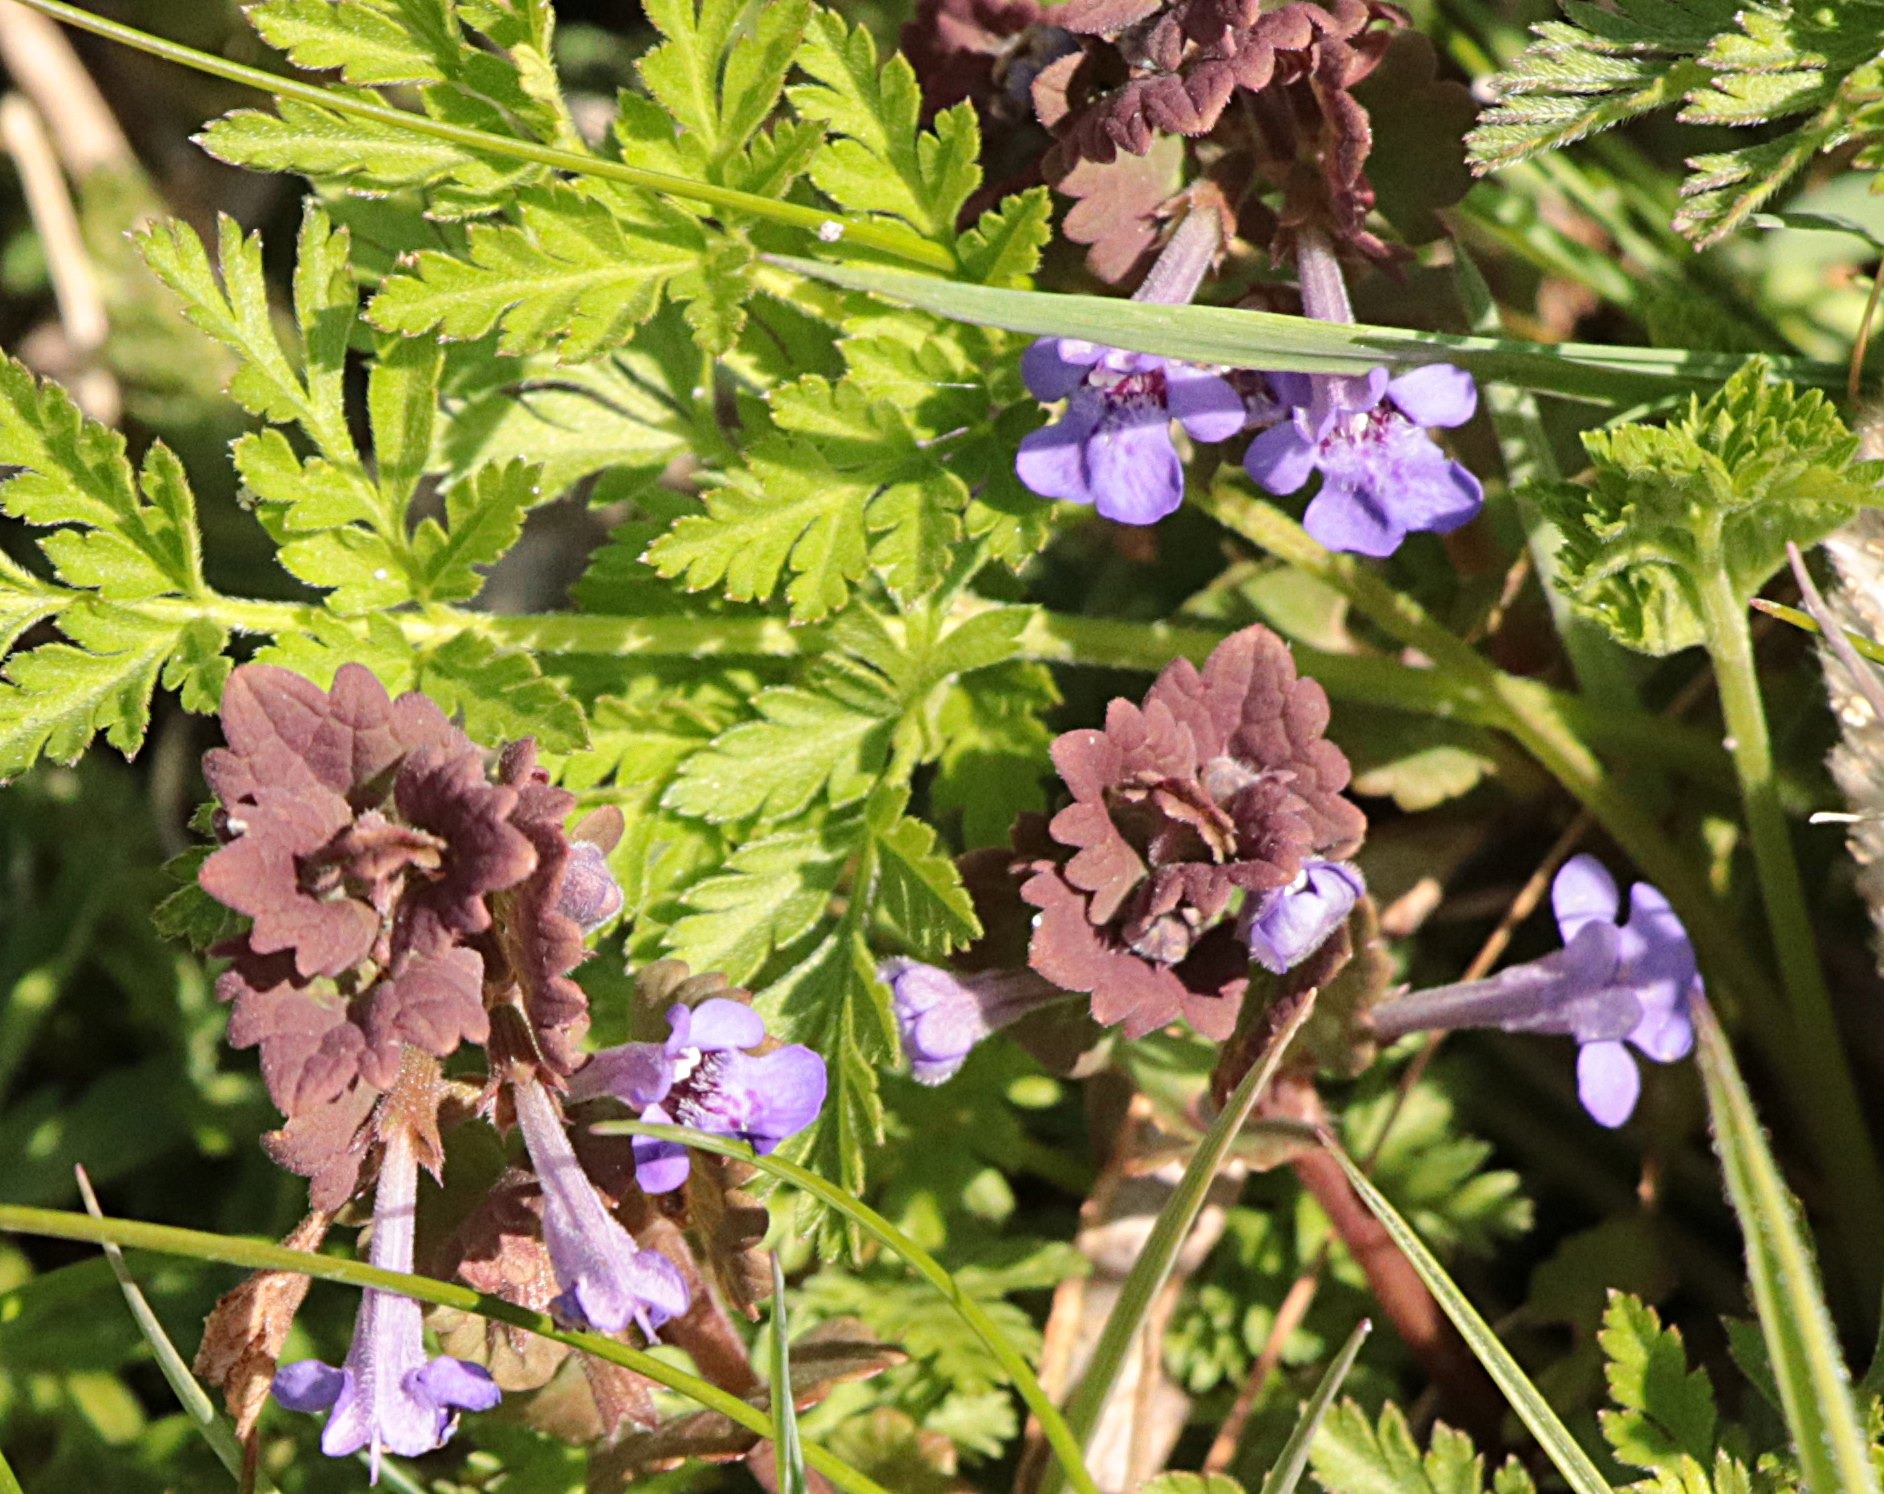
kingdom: Plantae
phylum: Tracheophyta
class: Magnoliopsida
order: Lamiales
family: Lamiaceae
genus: Glechoma
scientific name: Glechoma hederacea
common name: Korsknap
